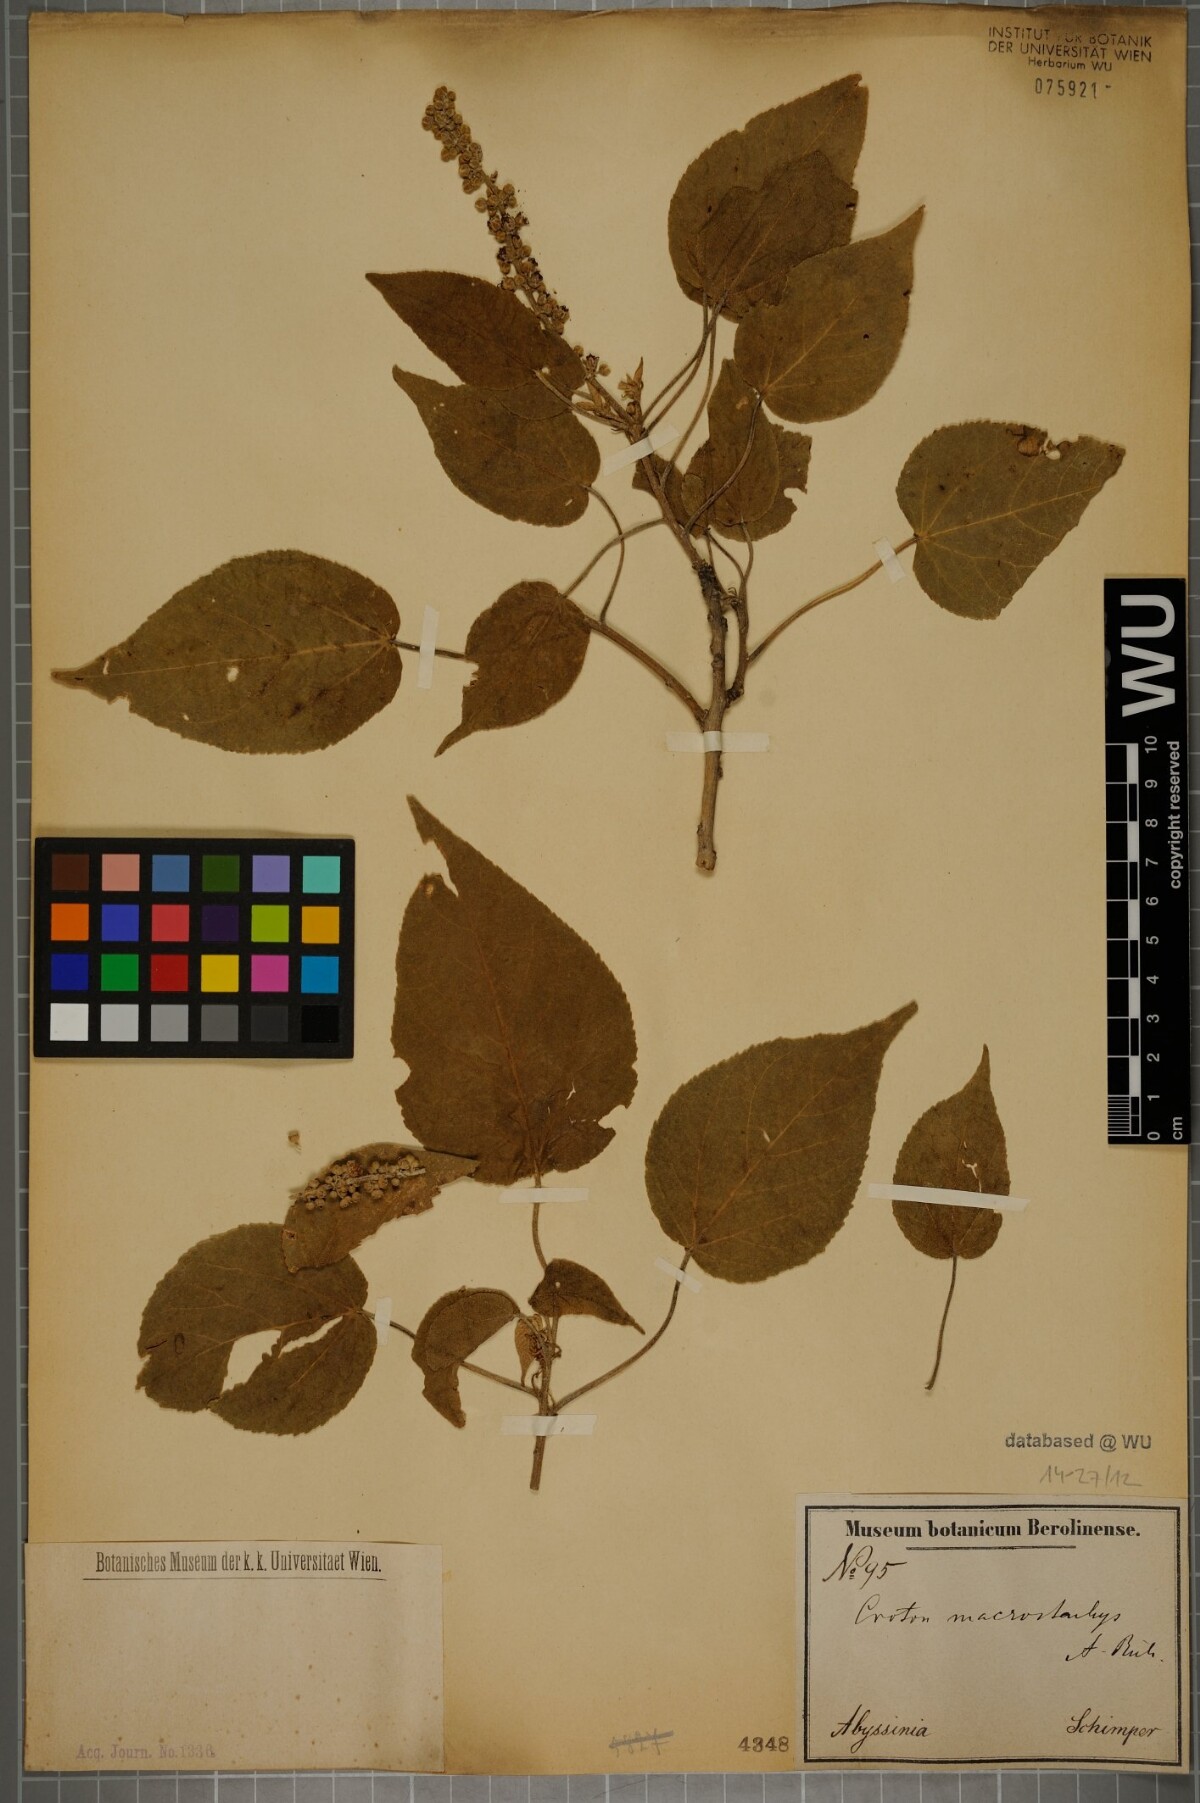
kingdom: Plantae
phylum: Tracheophyta
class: Magnoliopsida
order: Malpighiales
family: Euphorbiaceae
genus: Croton
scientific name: Croton macrostachys
